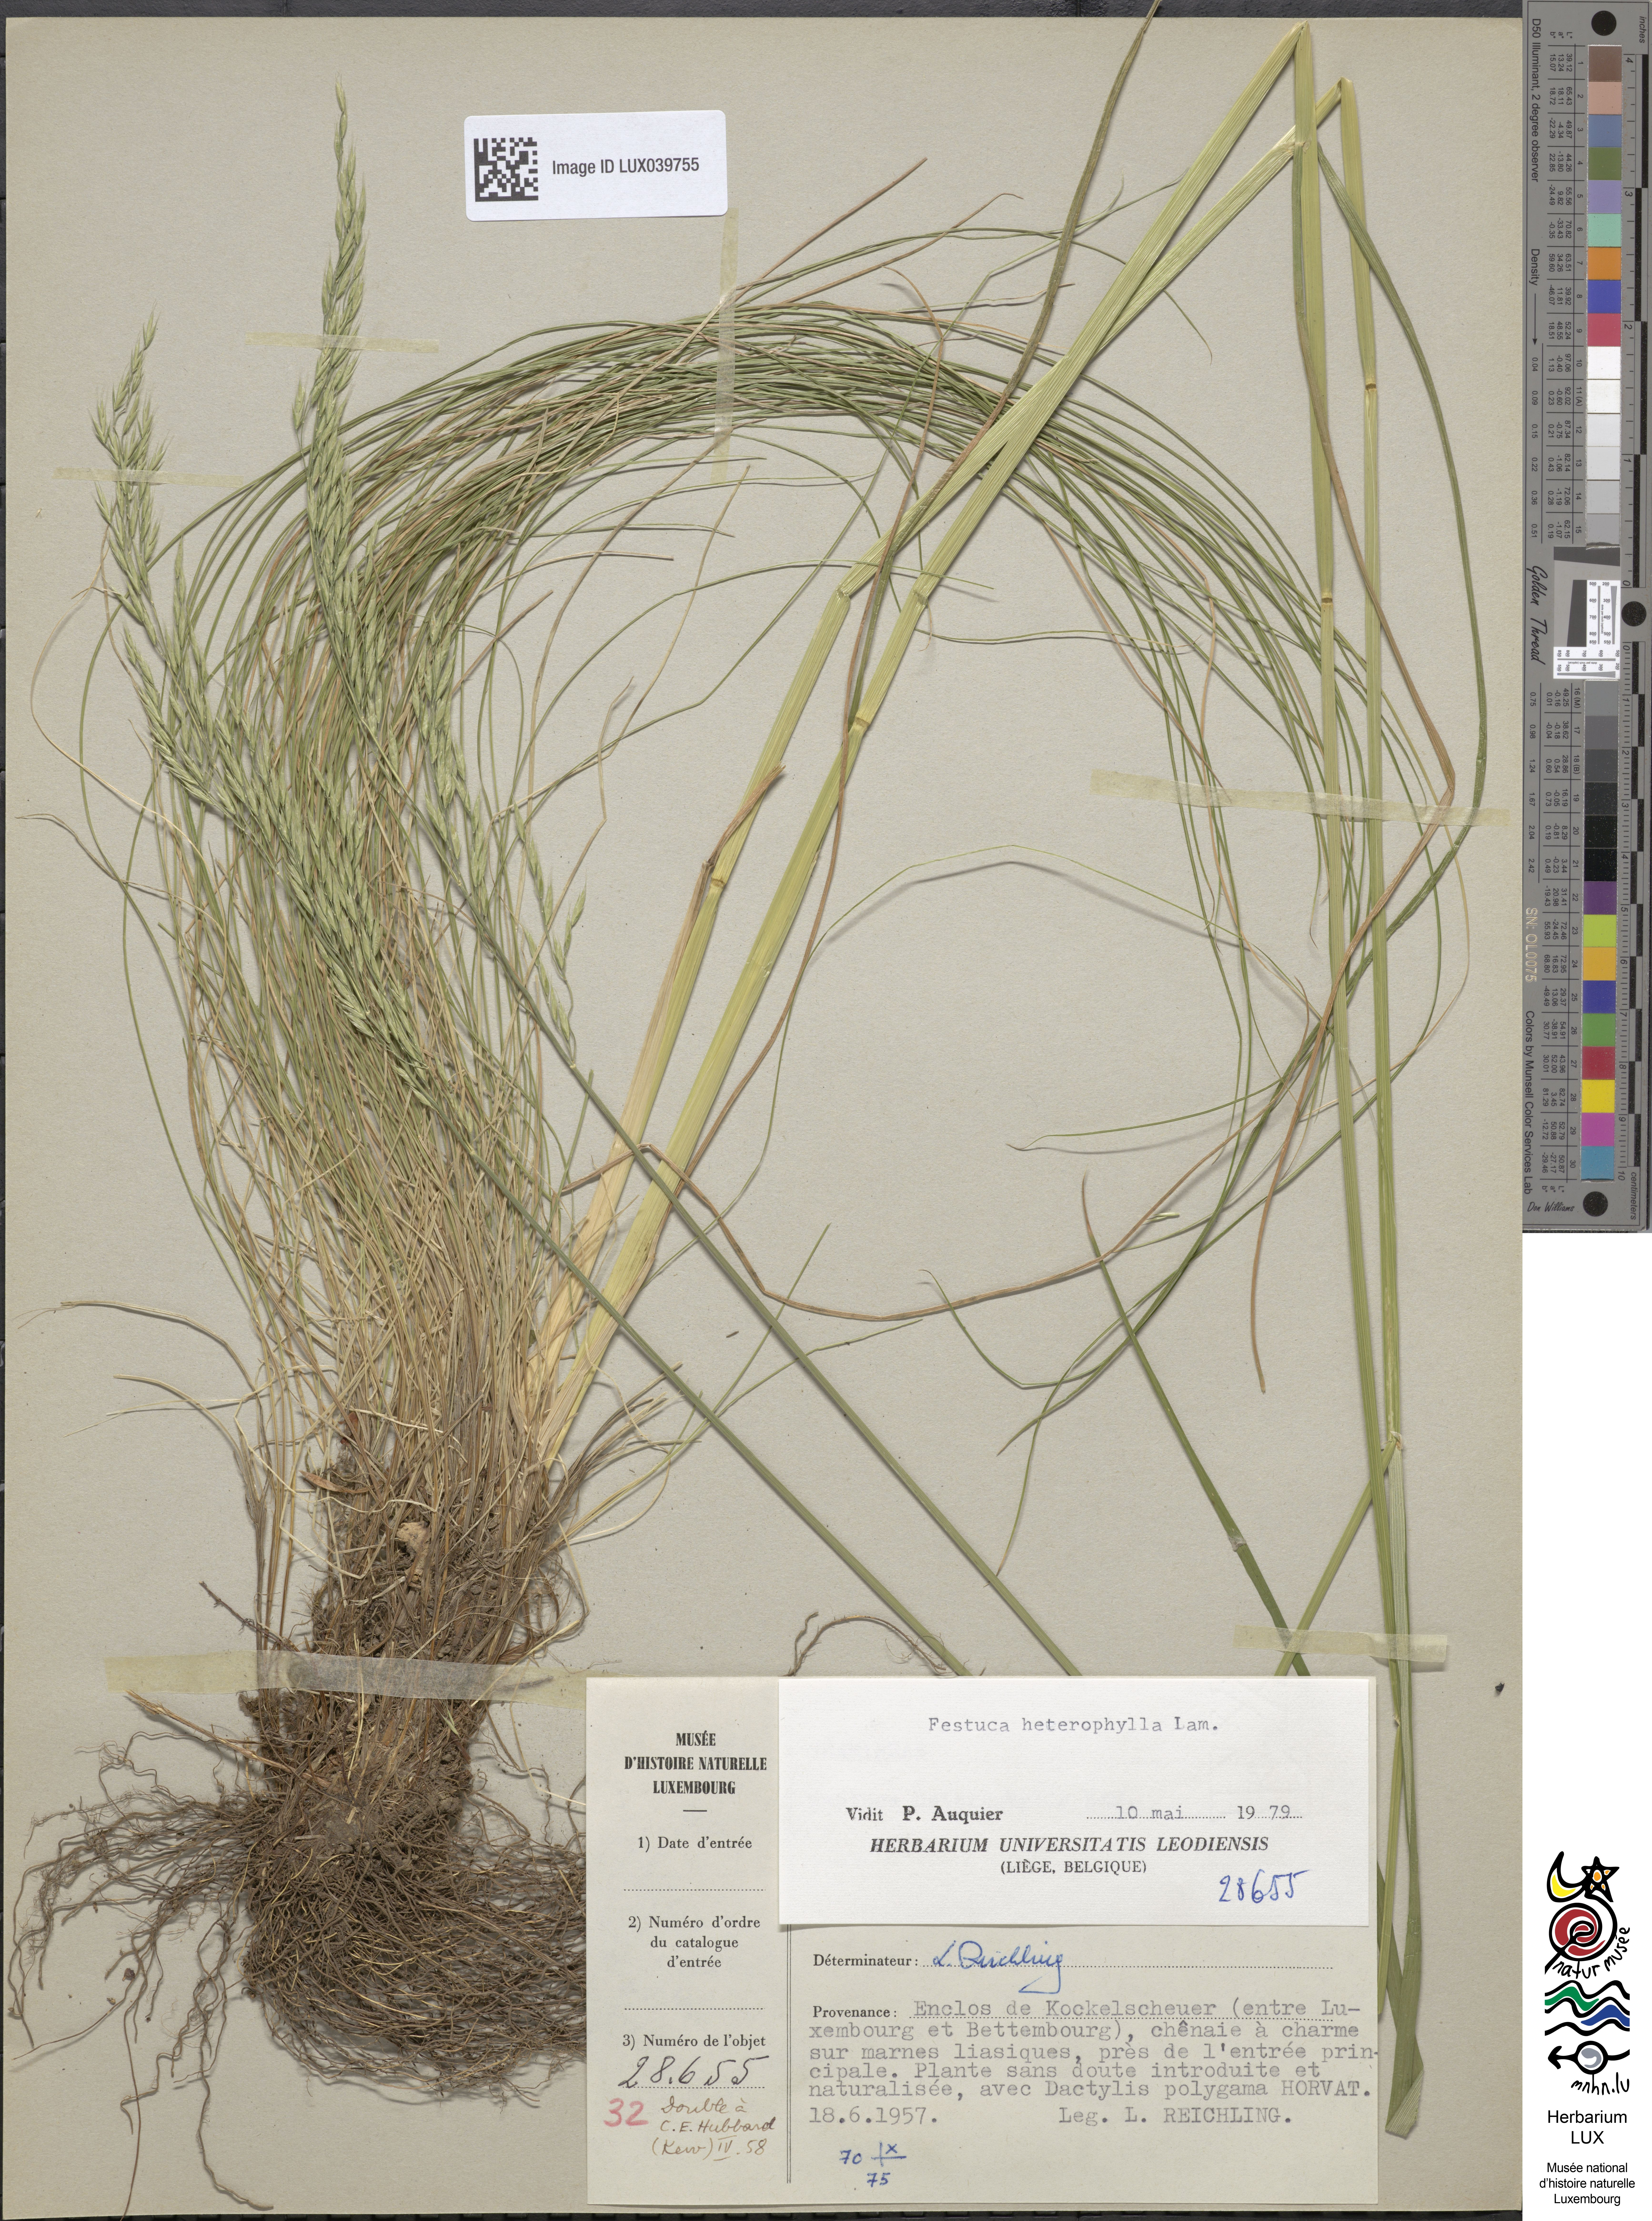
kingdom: Plantae
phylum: Tracheophyta
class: Liliopsida
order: Poales
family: Poaceae
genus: Festuca
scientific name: Festuca heterophylla
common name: Various-leaved fescue
